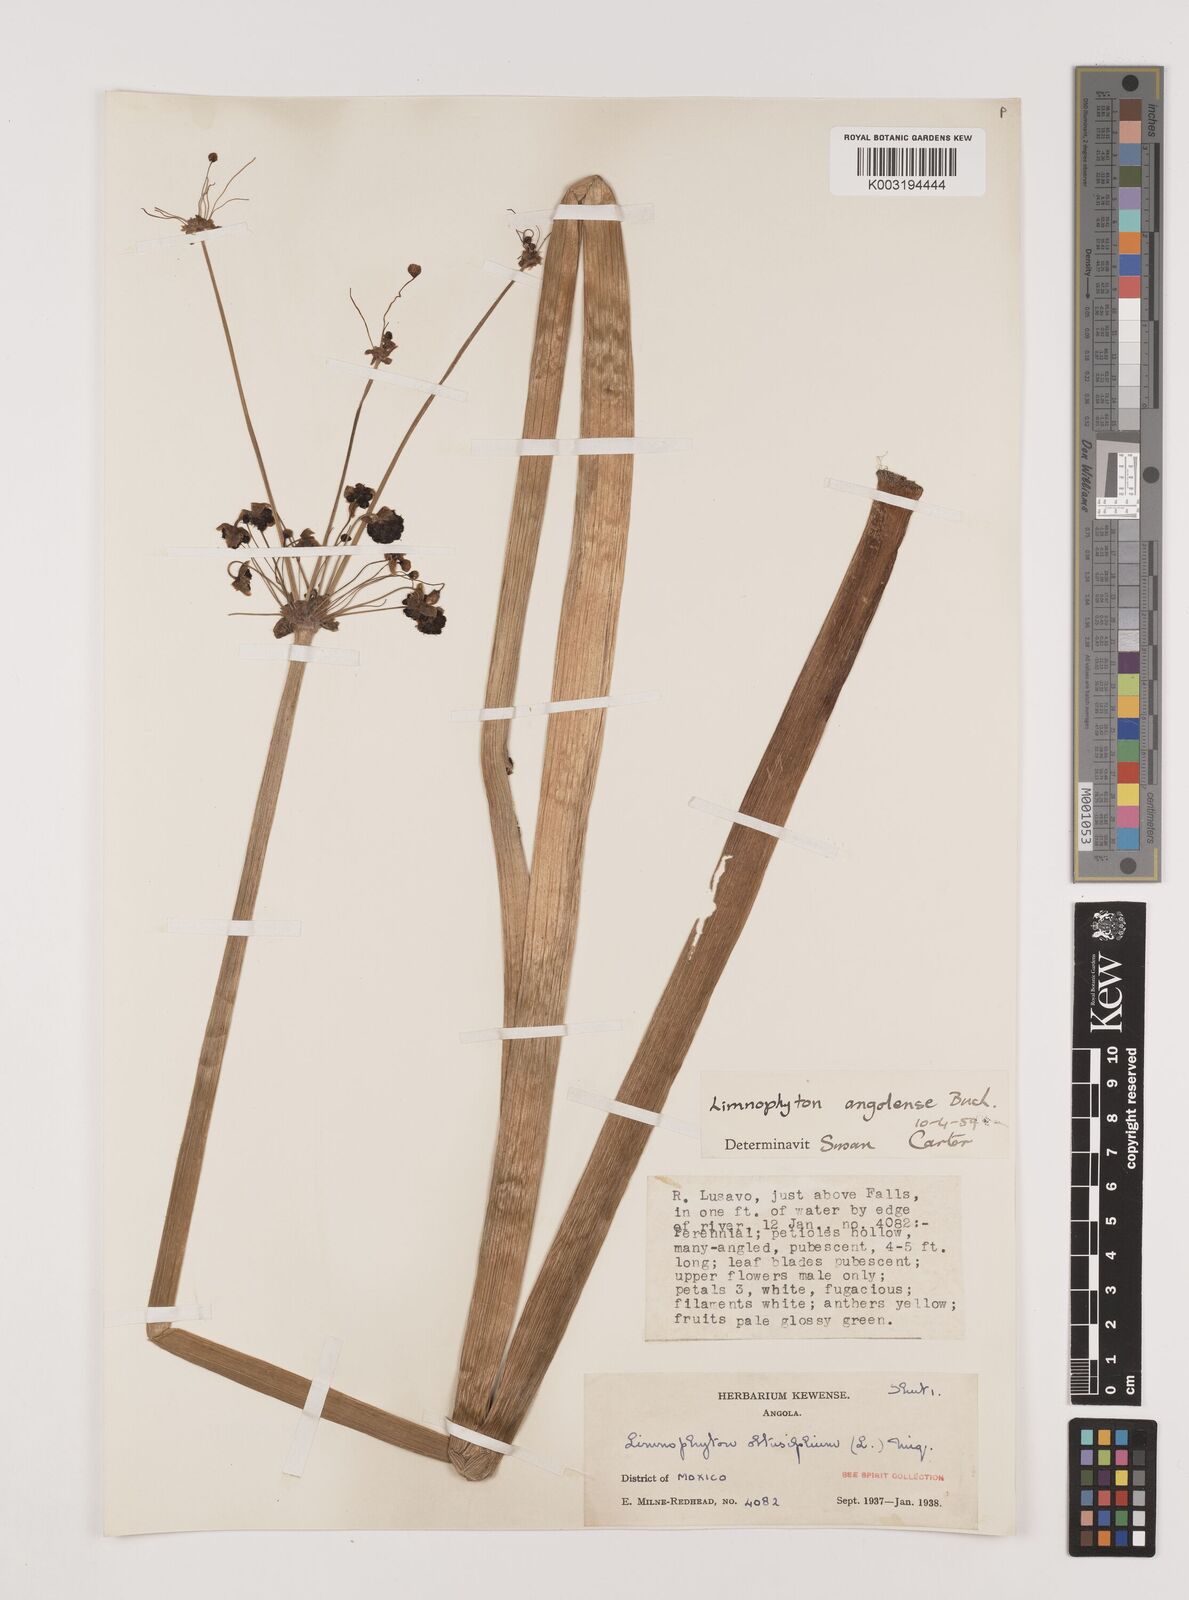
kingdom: Plantae
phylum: Tracheophyta
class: Liliopsida
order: Alismatales
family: Alismataceae
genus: Limnophyton
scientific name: Limnophyton angolense
